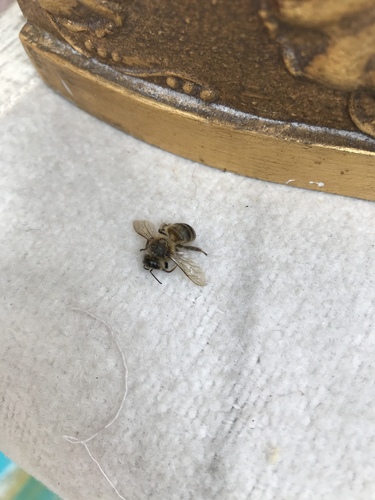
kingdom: Animalia
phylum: Arthropoda
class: Insecta
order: Hymenoptera
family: Apidae
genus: Apis
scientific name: Apis mellifera
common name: Honey bee
